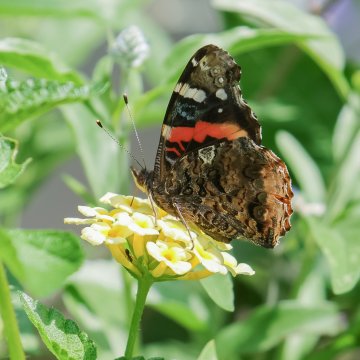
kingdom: Animalia
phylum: Arthropoda
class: Insecta
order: Lepidoptera
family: Nymphalidae
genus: Vanessa
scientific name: Vanessa atalanta
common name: Red Admiral
